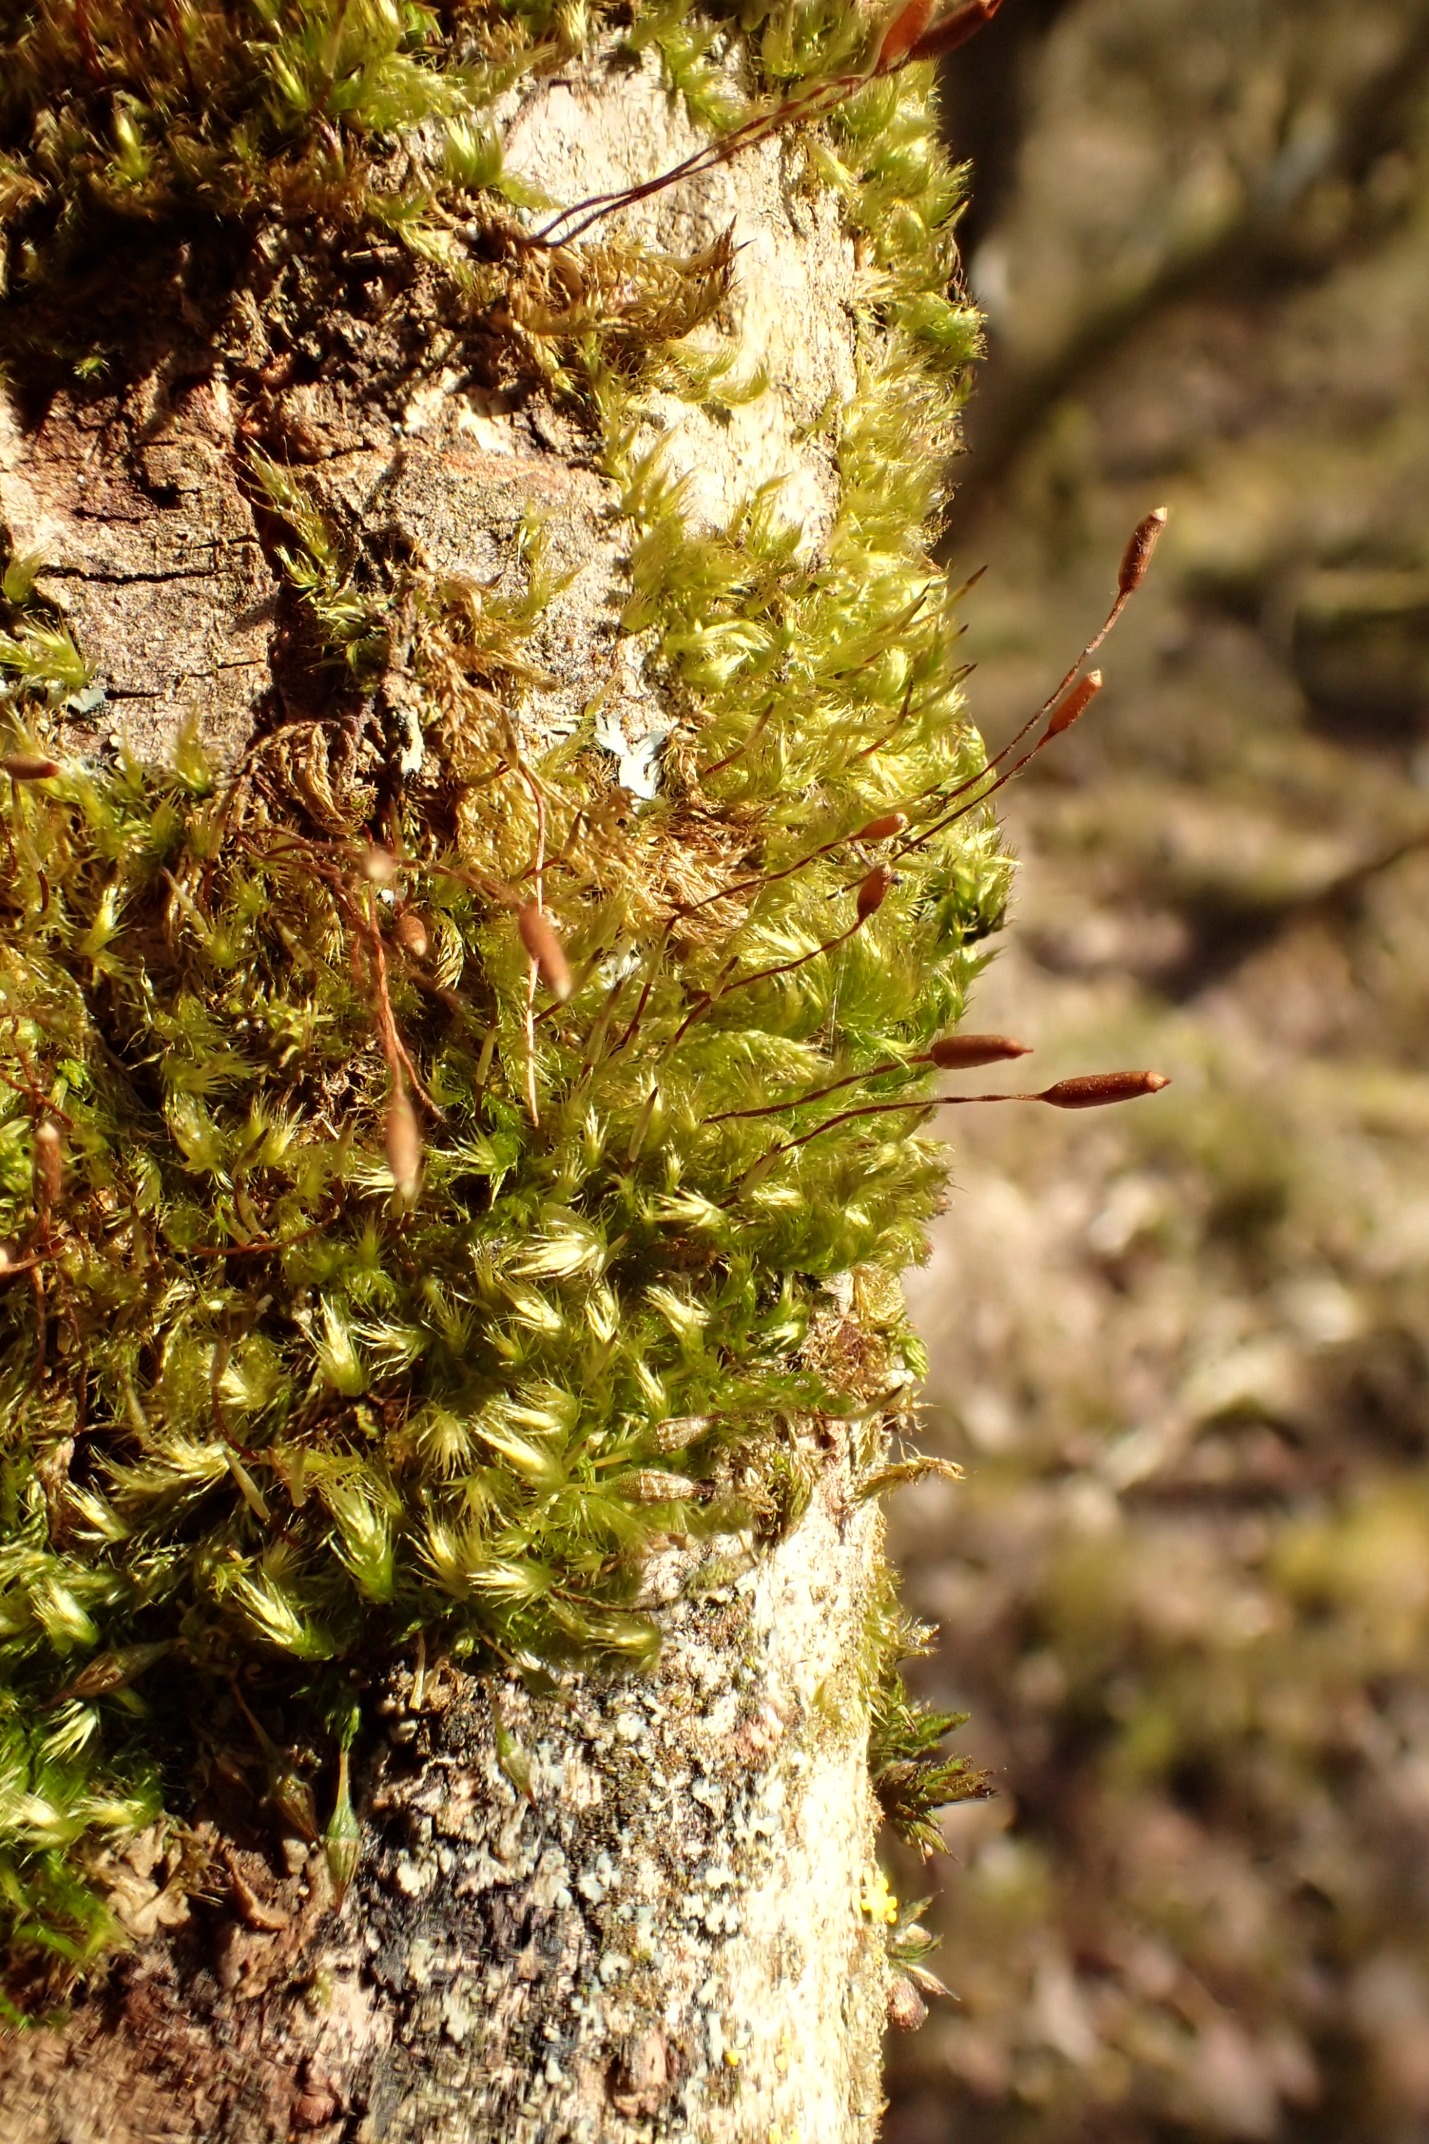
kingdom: Plantae
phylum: Bryophyta
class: Bryopsida
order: Hypnales
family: Pylaisiaceae
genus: Pylaisia
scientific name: Pylaisia polyantha
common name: Mangefrugtet aspemos
